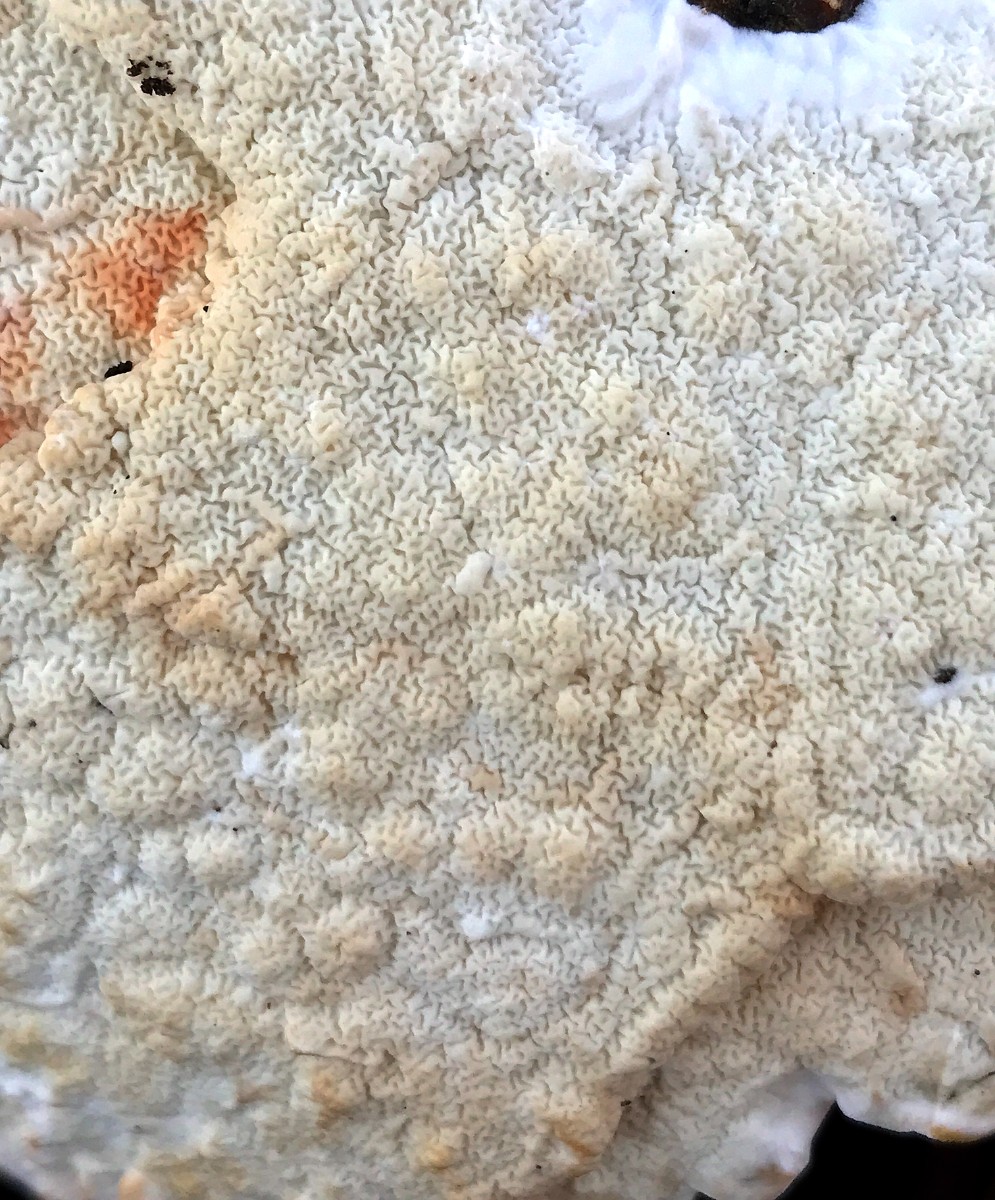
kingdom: Fungi
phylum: Basidiomycota
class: Agaricomycetes
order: Polyporales
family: Irpicaceae
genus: Byssomerulius
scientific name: Byssomerulius corium
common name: læder-åresvamp
